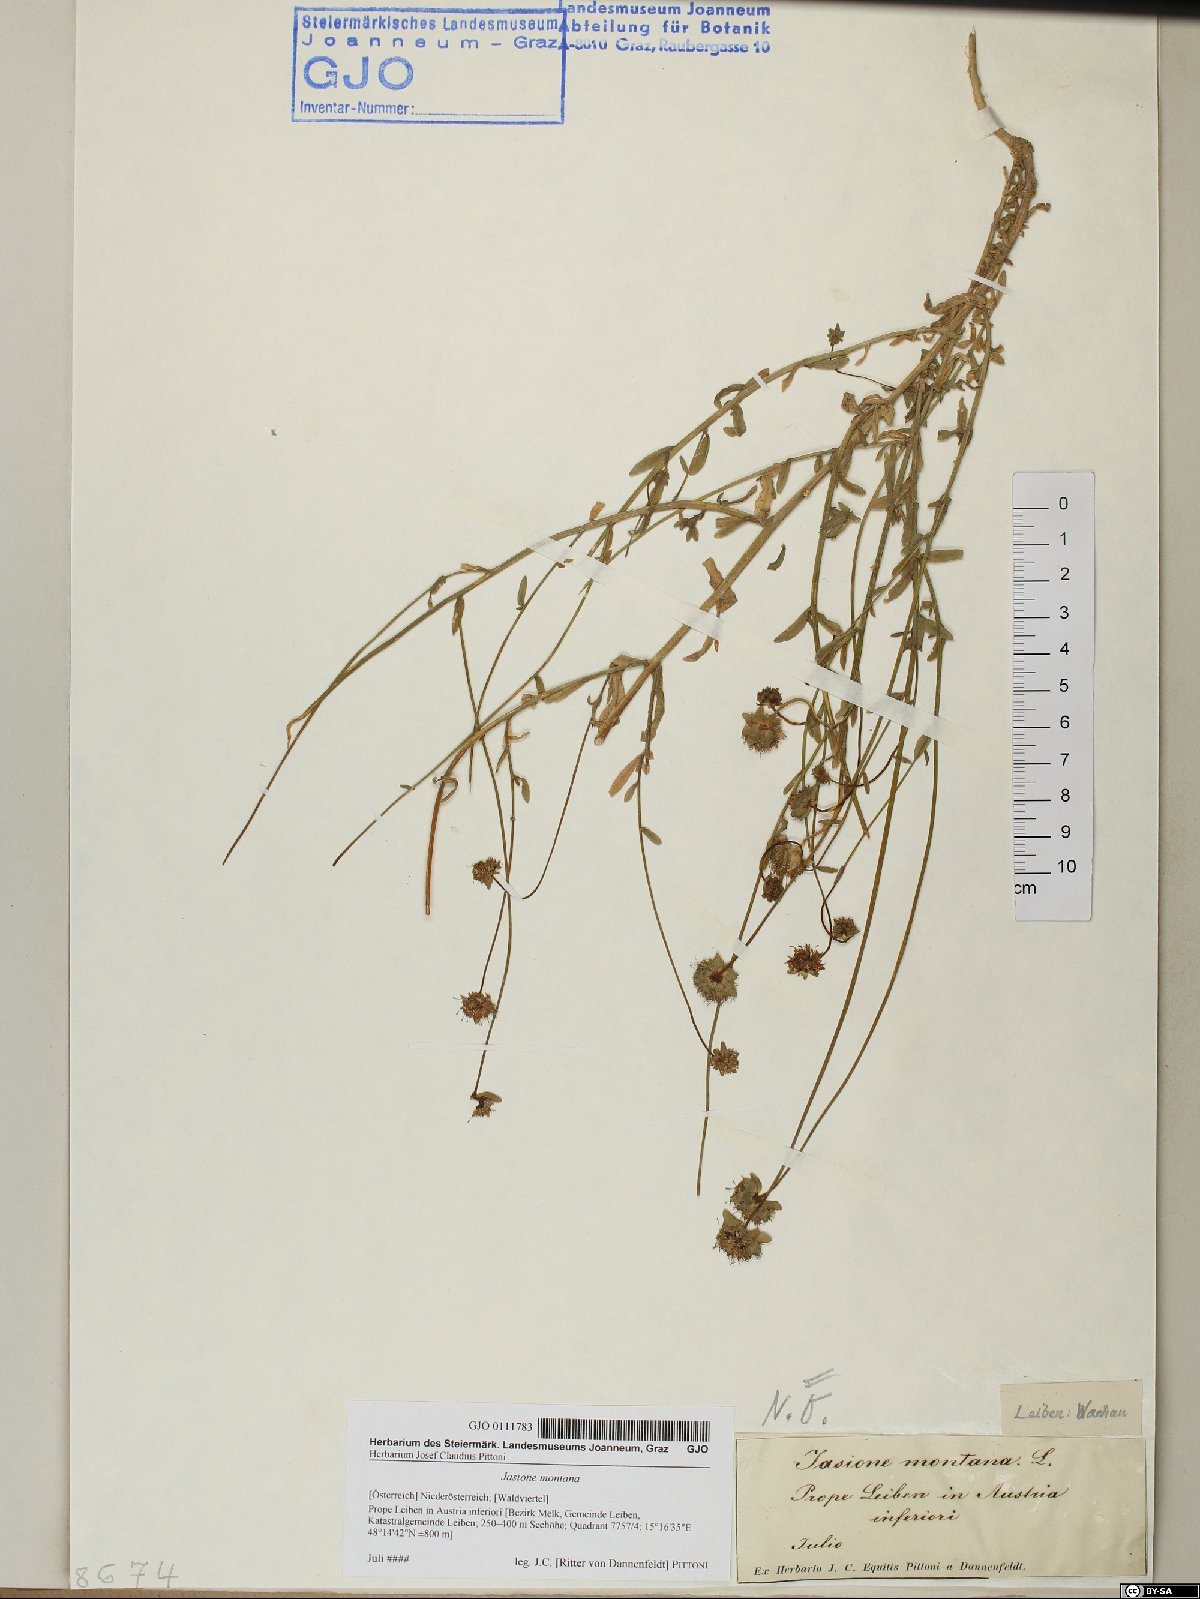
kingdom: Plantae
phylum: Tracheophyta
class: Magnoliopsida
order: Asterales
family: Campanulaceae
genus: Jasione
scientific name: Jasione montana
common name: Sheep's-bit
